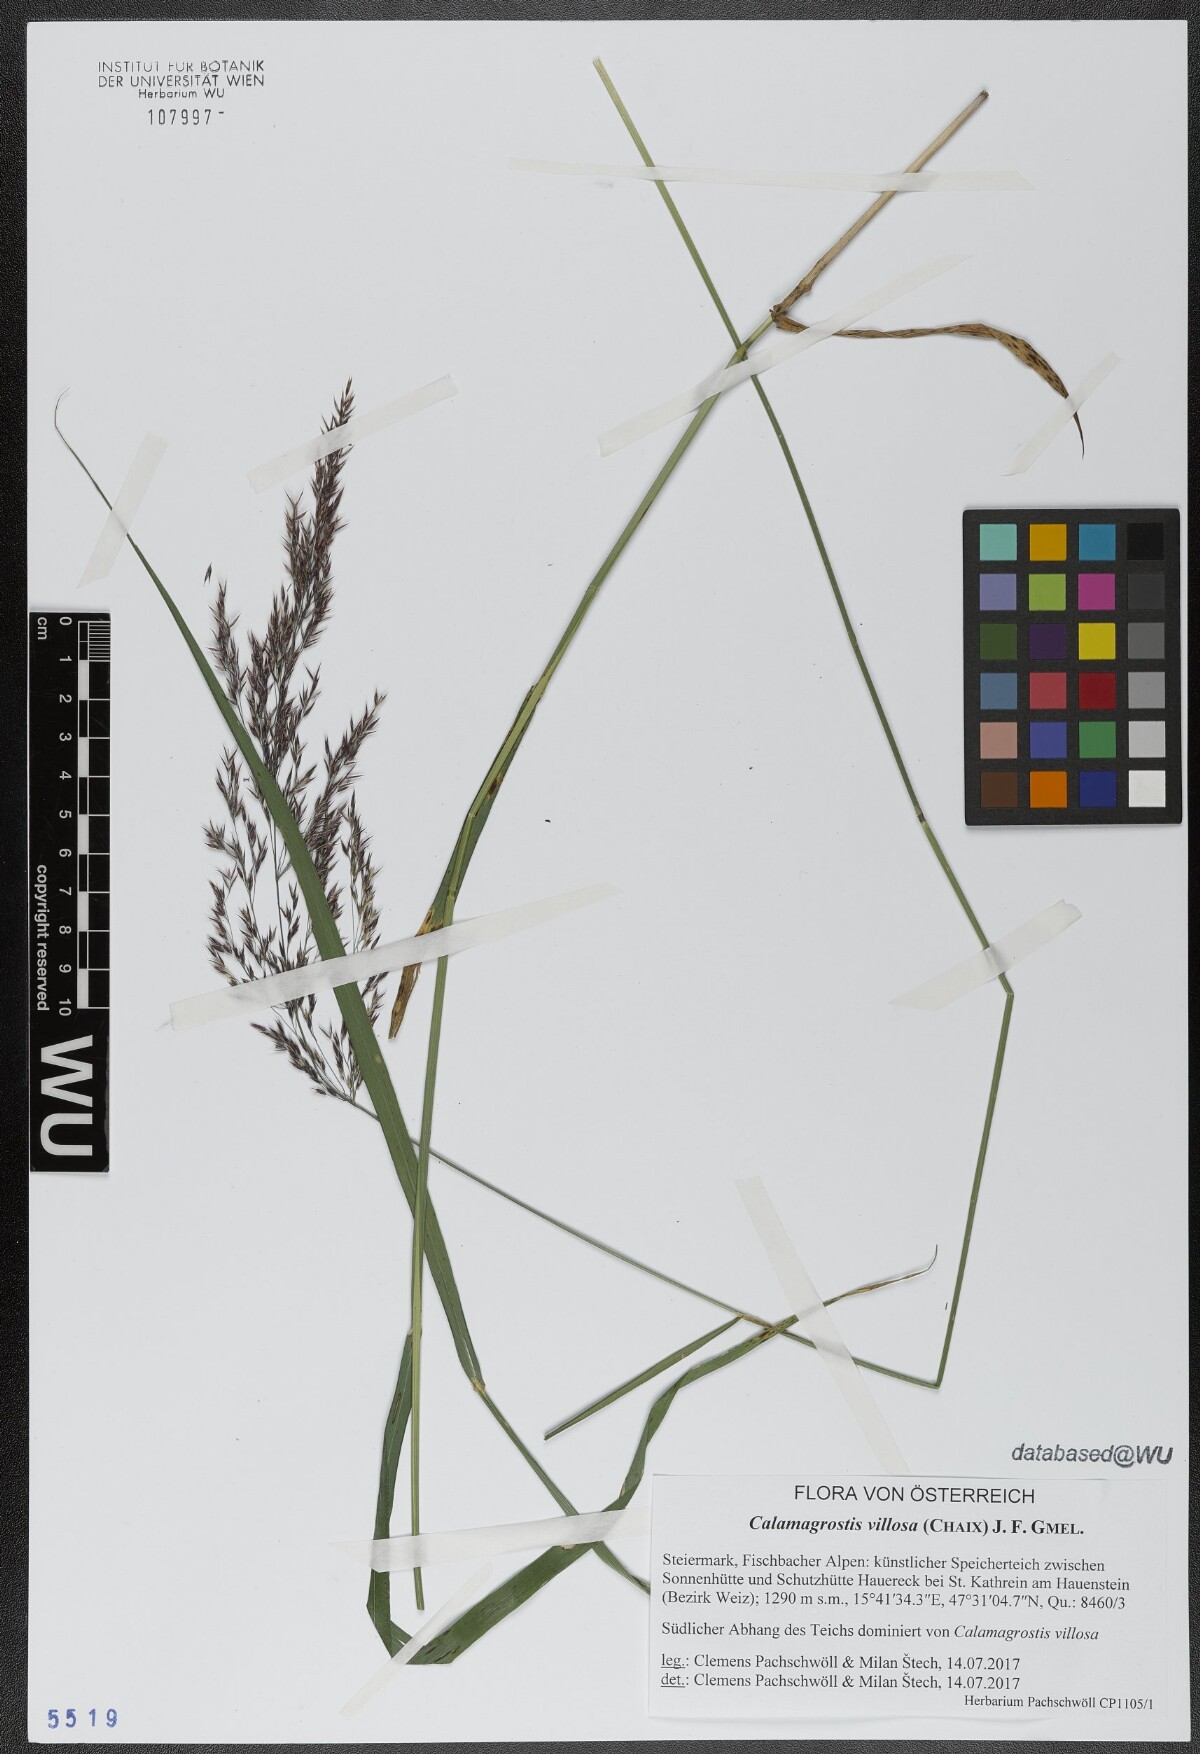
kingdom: Plantae
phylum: Tracheophyta
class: Liliopsida
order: Poales
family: Poaceae
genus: Calamagrostis
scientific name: Calamagrostis villosa
